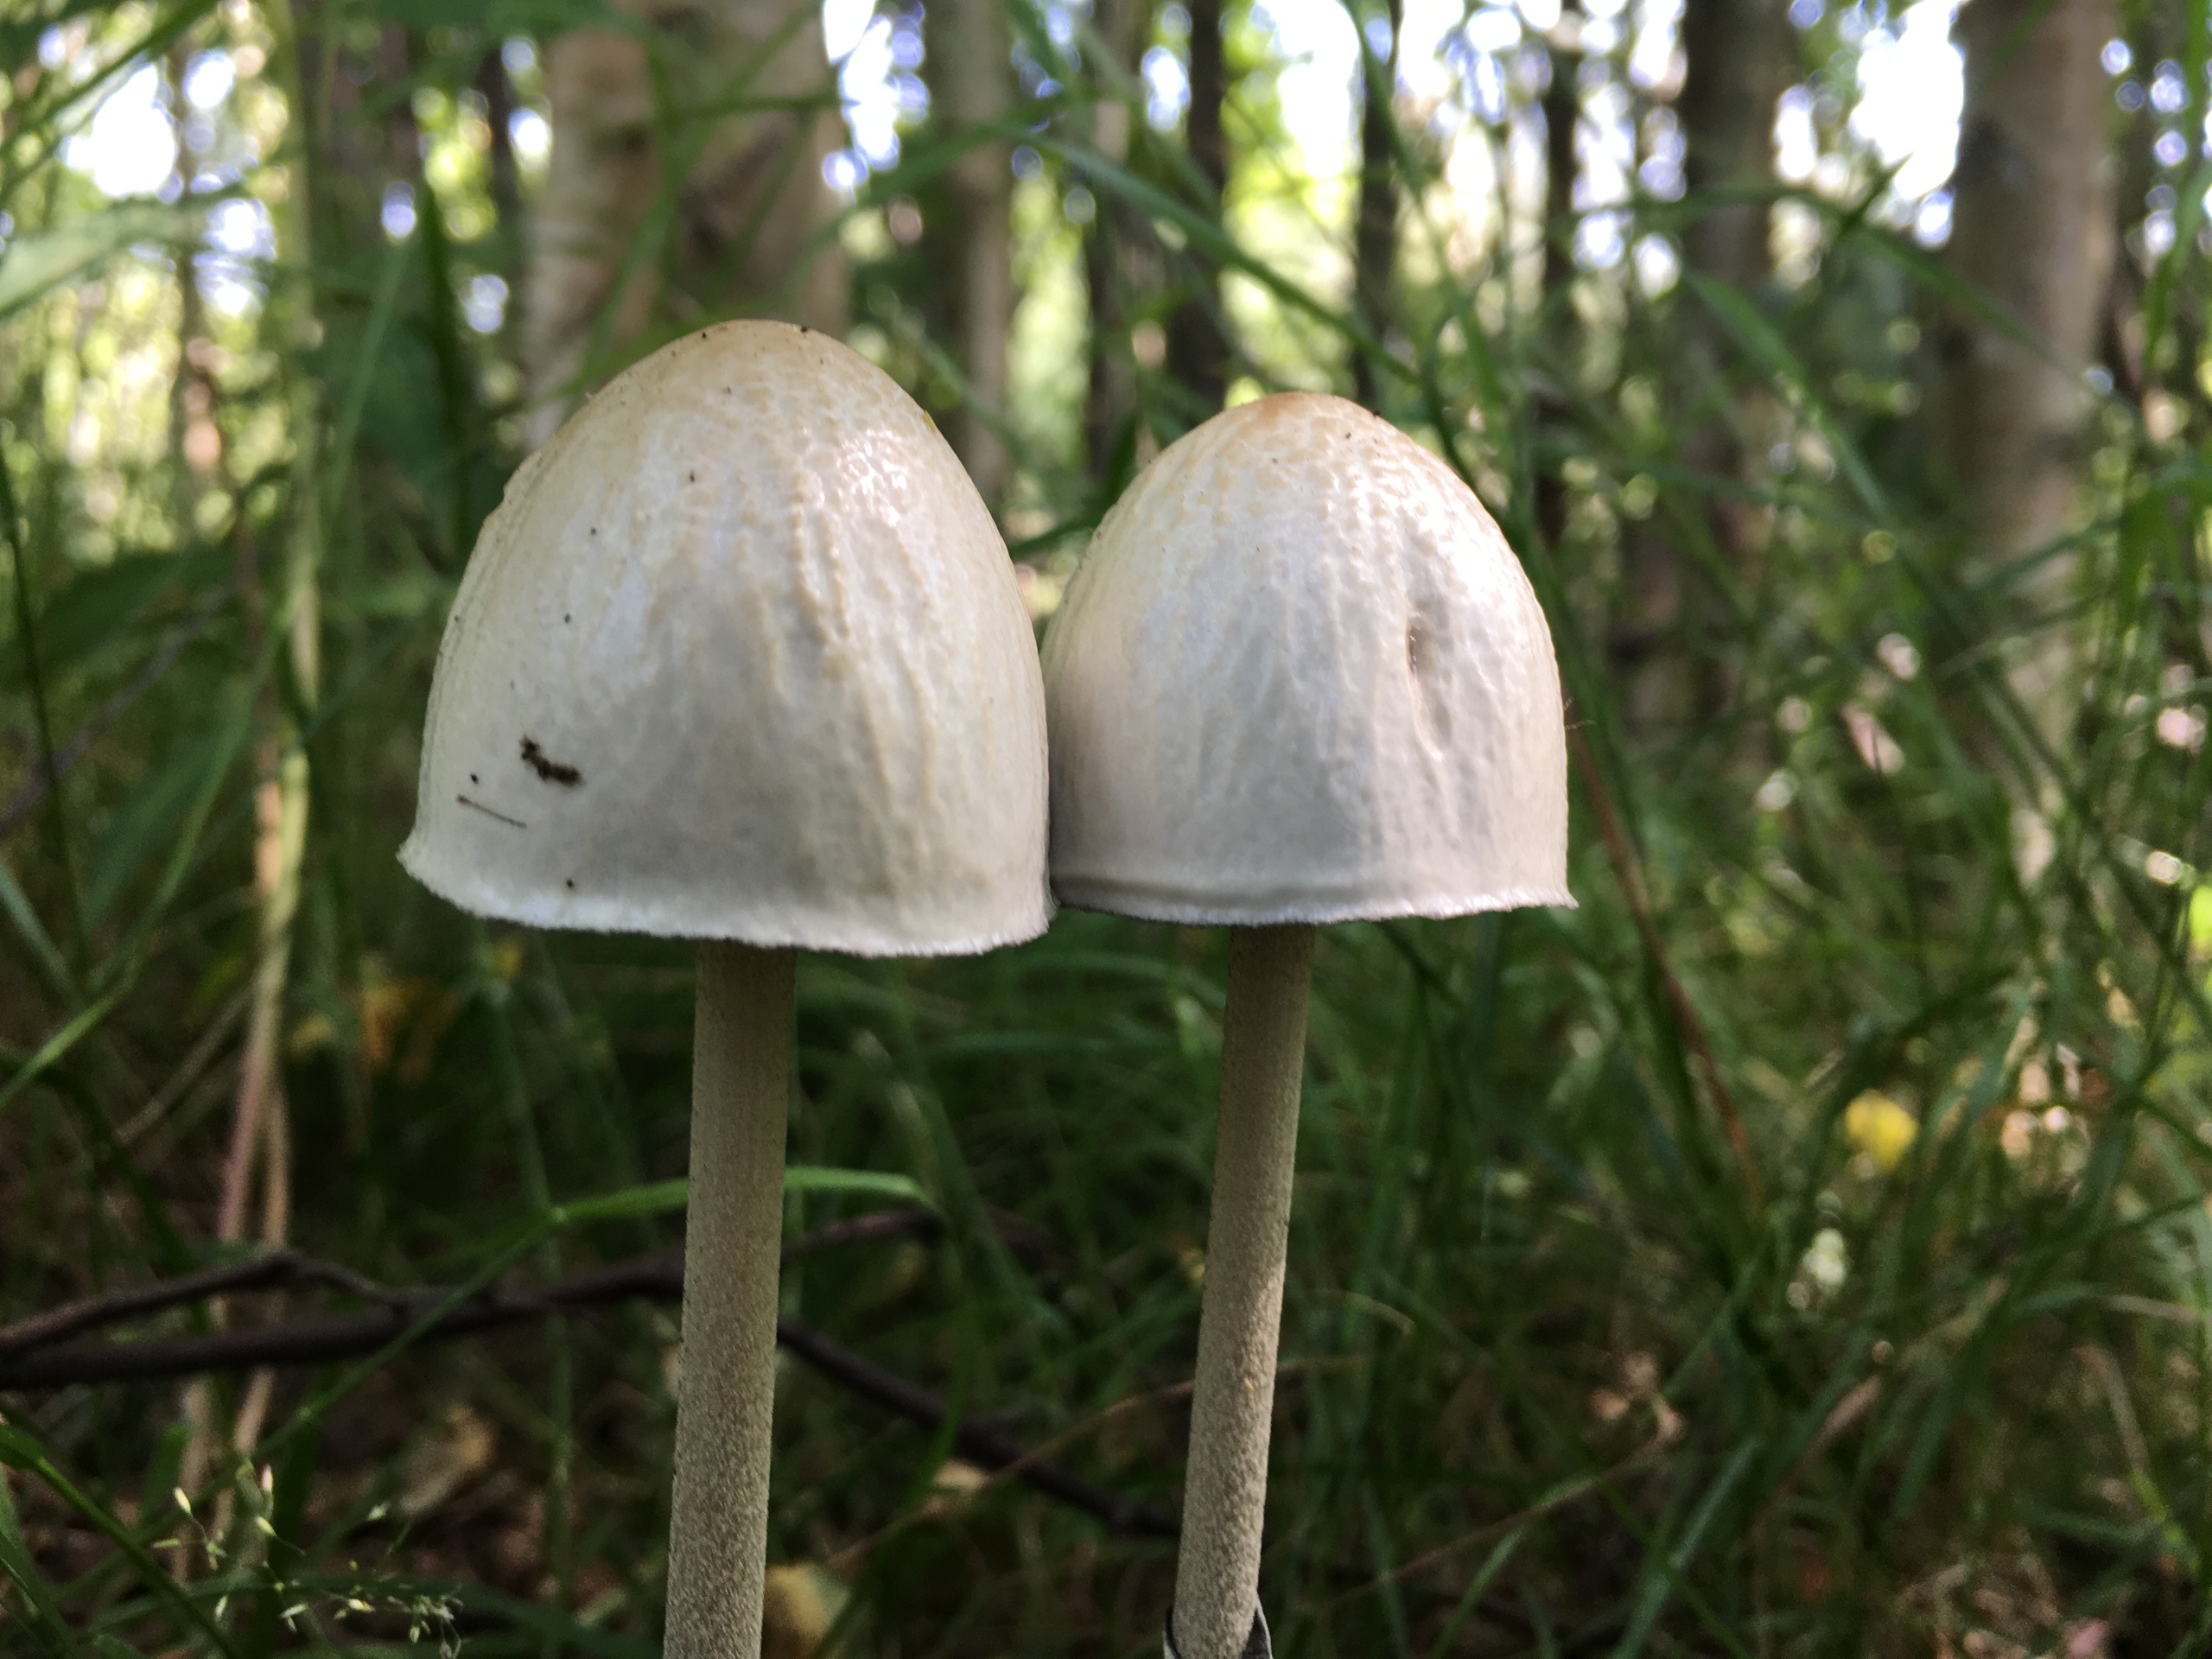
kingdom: Fungi
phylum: Basidiomycota
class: Agaricomycetes
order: Agaricales
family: Bolbitiaceae
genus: Panaeolus
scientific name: Panaeolus semiovatus
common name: Ring-glanshat
